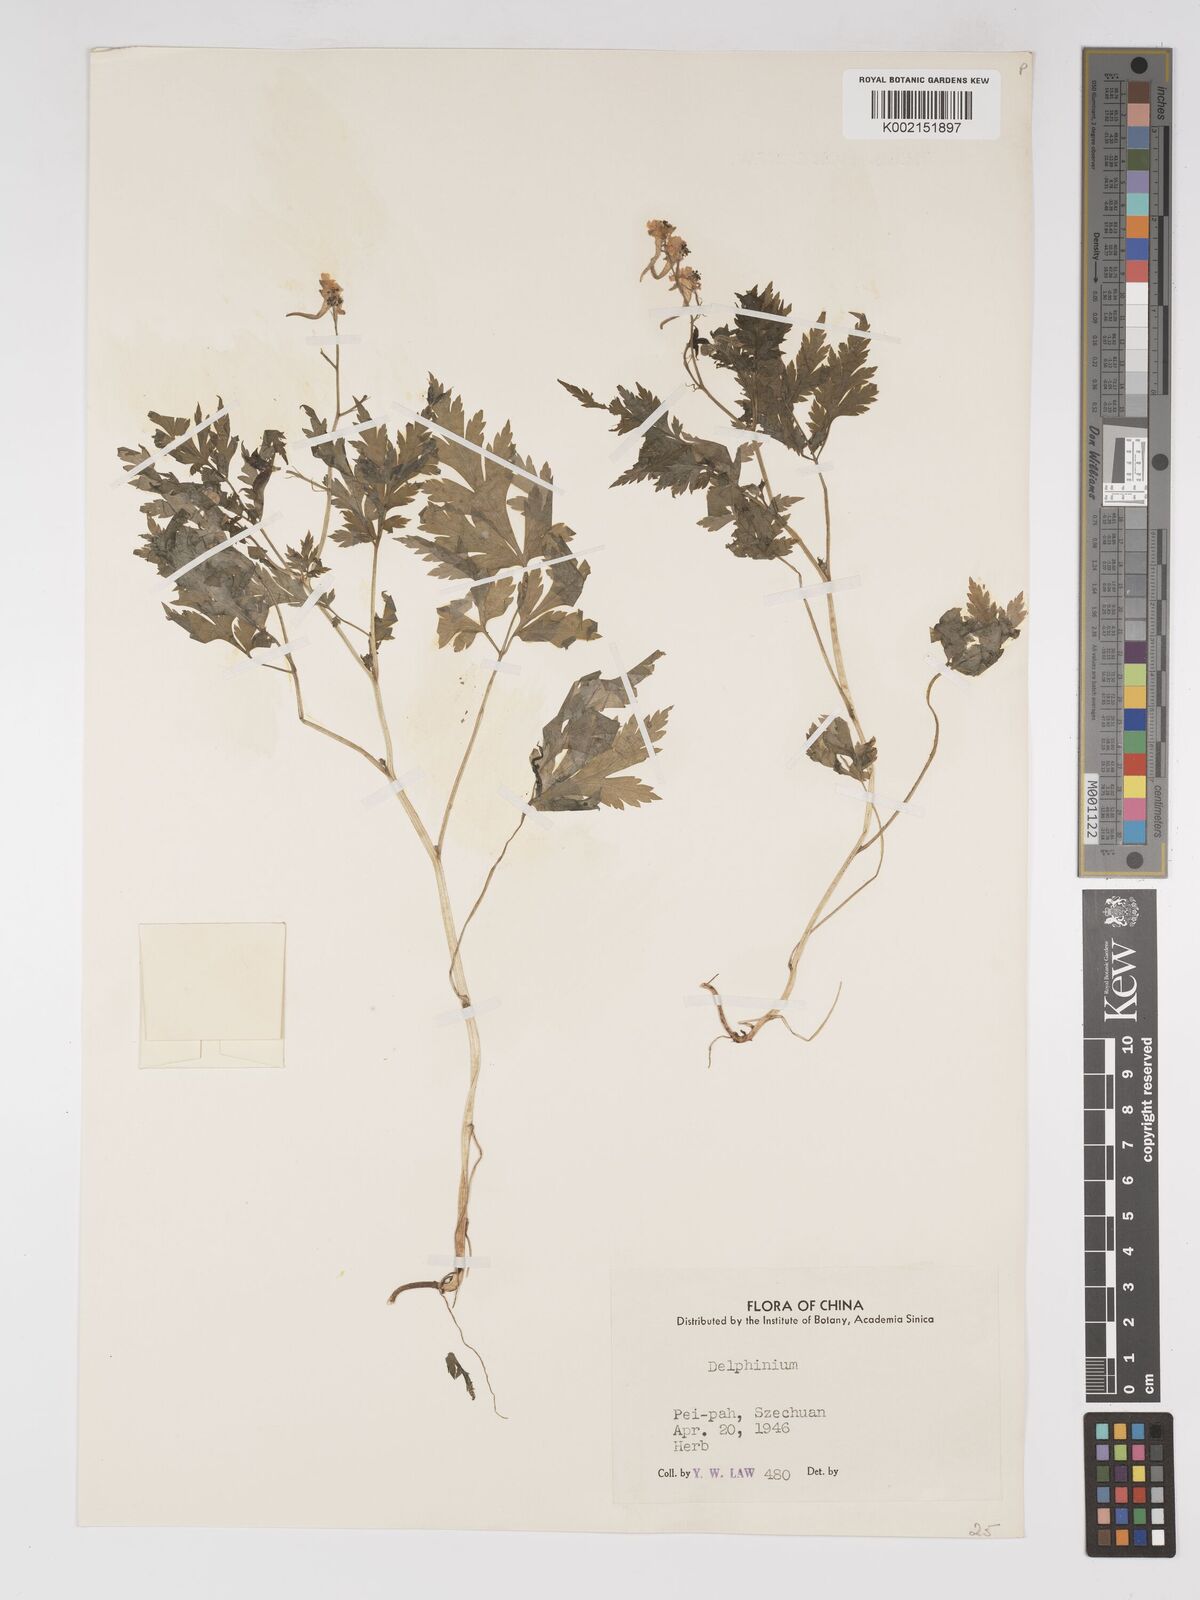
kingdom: Plantae
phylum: Tracheophyta
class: Magnoliopsida
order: Ranunculales
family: Ranunculaceae
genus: Delphinium
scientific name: Delphinium anthriscifolium
